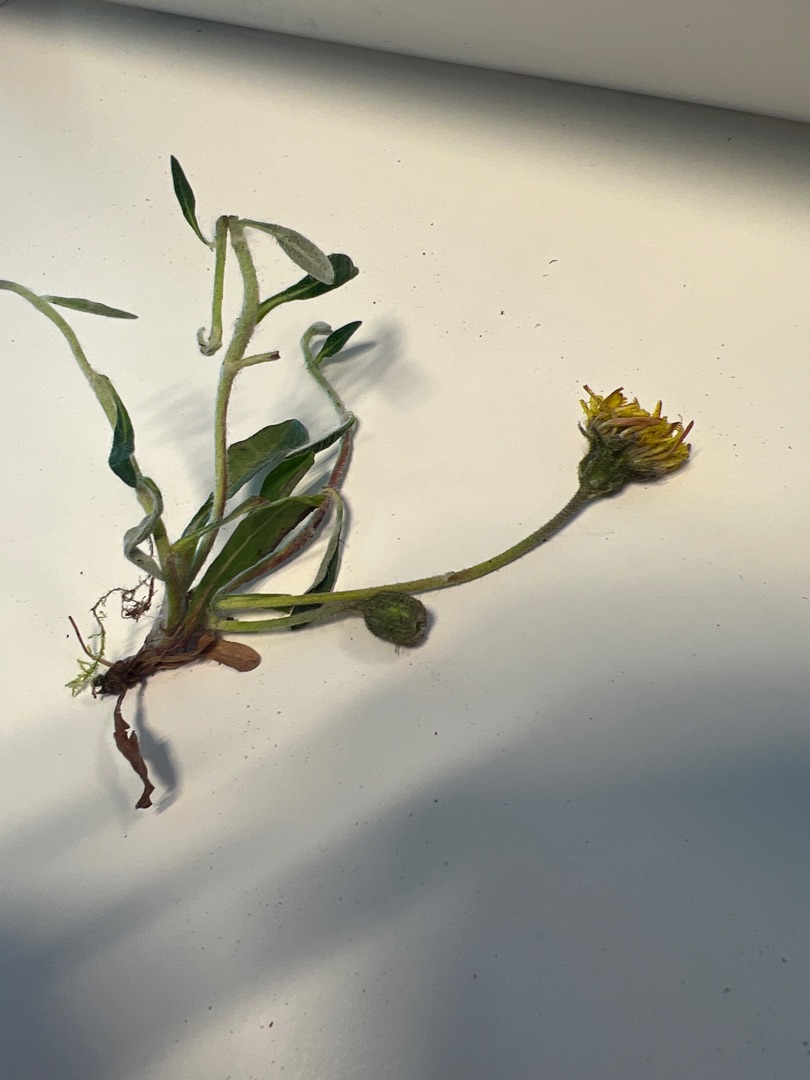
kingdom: Plantae
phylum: Tracheophyta
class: Magnoliopsida
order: Asterales
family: Asteraceae
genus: Pilosella
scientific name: Pilosella officinarum
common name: Håret høgeurt
